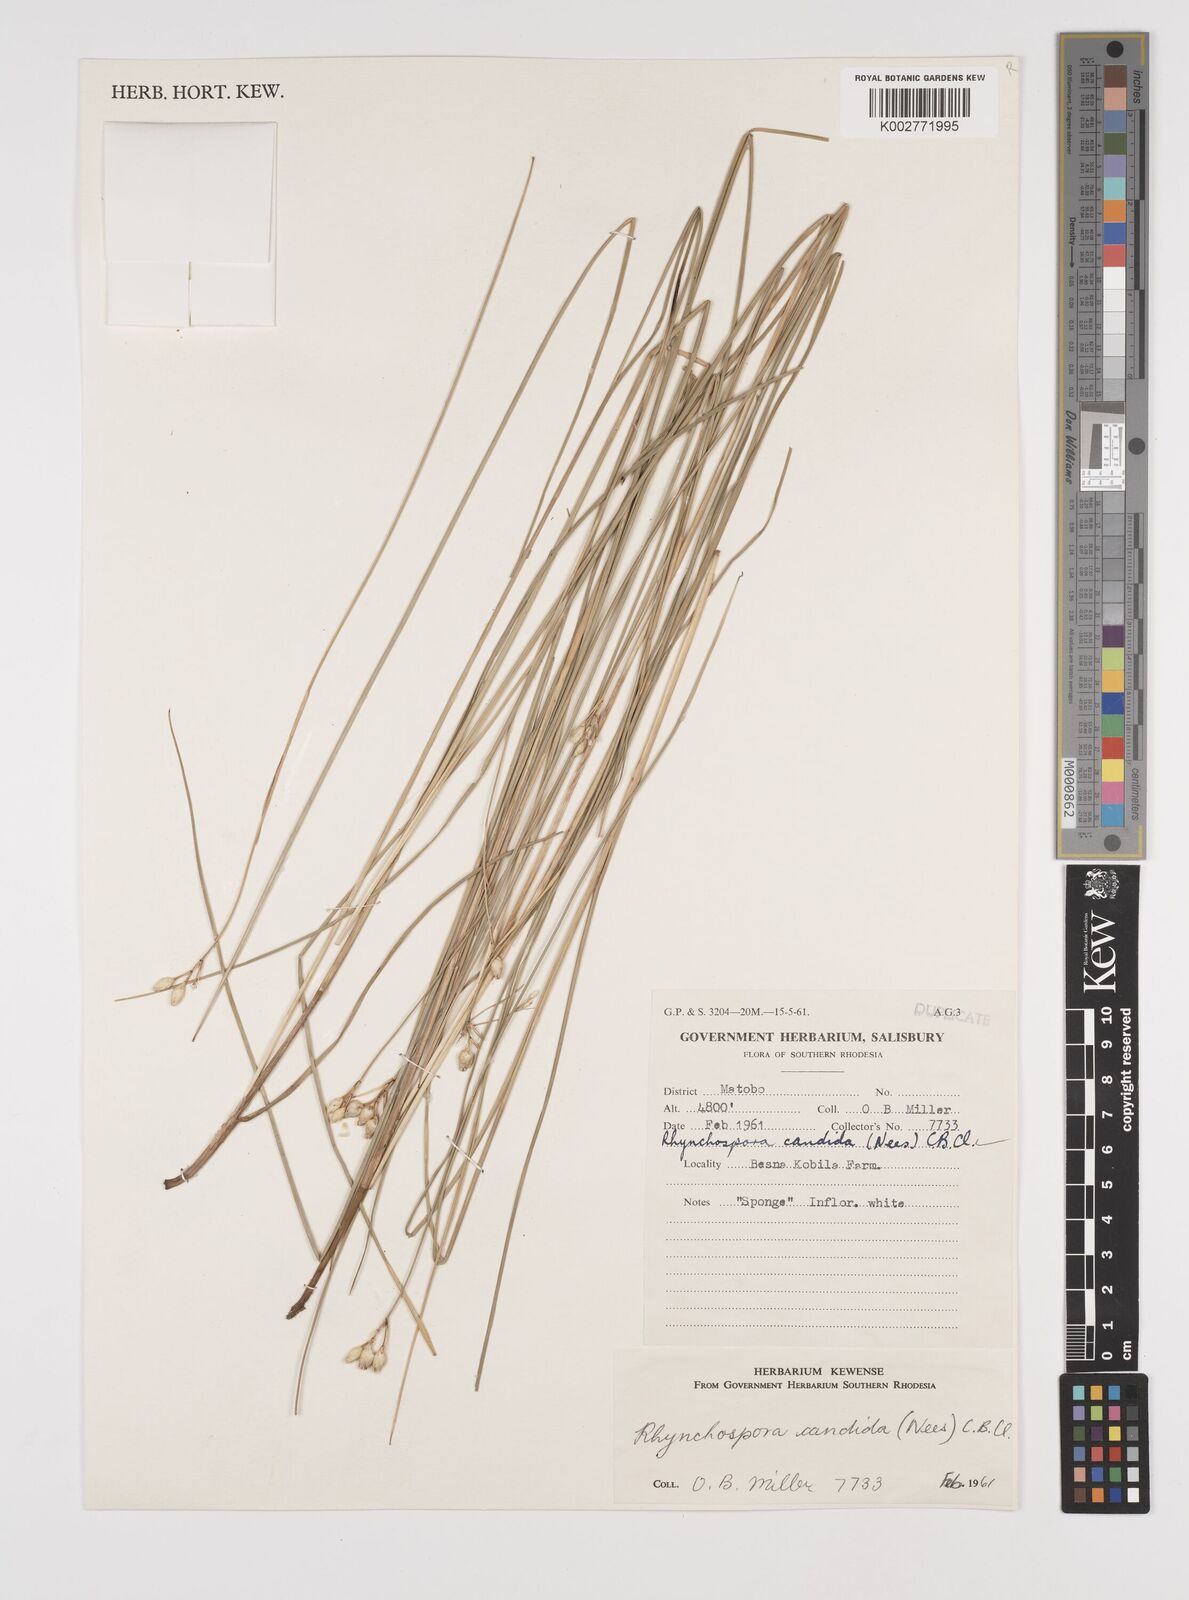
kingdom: Plantae
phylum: Tracheophyta
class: Liliopsida
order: Poales
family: Cyperaceae
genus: Rhynchospora
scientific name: Rhynchospora candida
